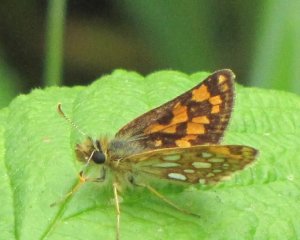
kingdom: Animalia
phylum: Arthropoda
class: Insecta
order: Lepidoptera
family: Hesperiidae
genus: Carterocephalus
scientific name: Carterocephalus palaemon
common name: Chequered Skipper
